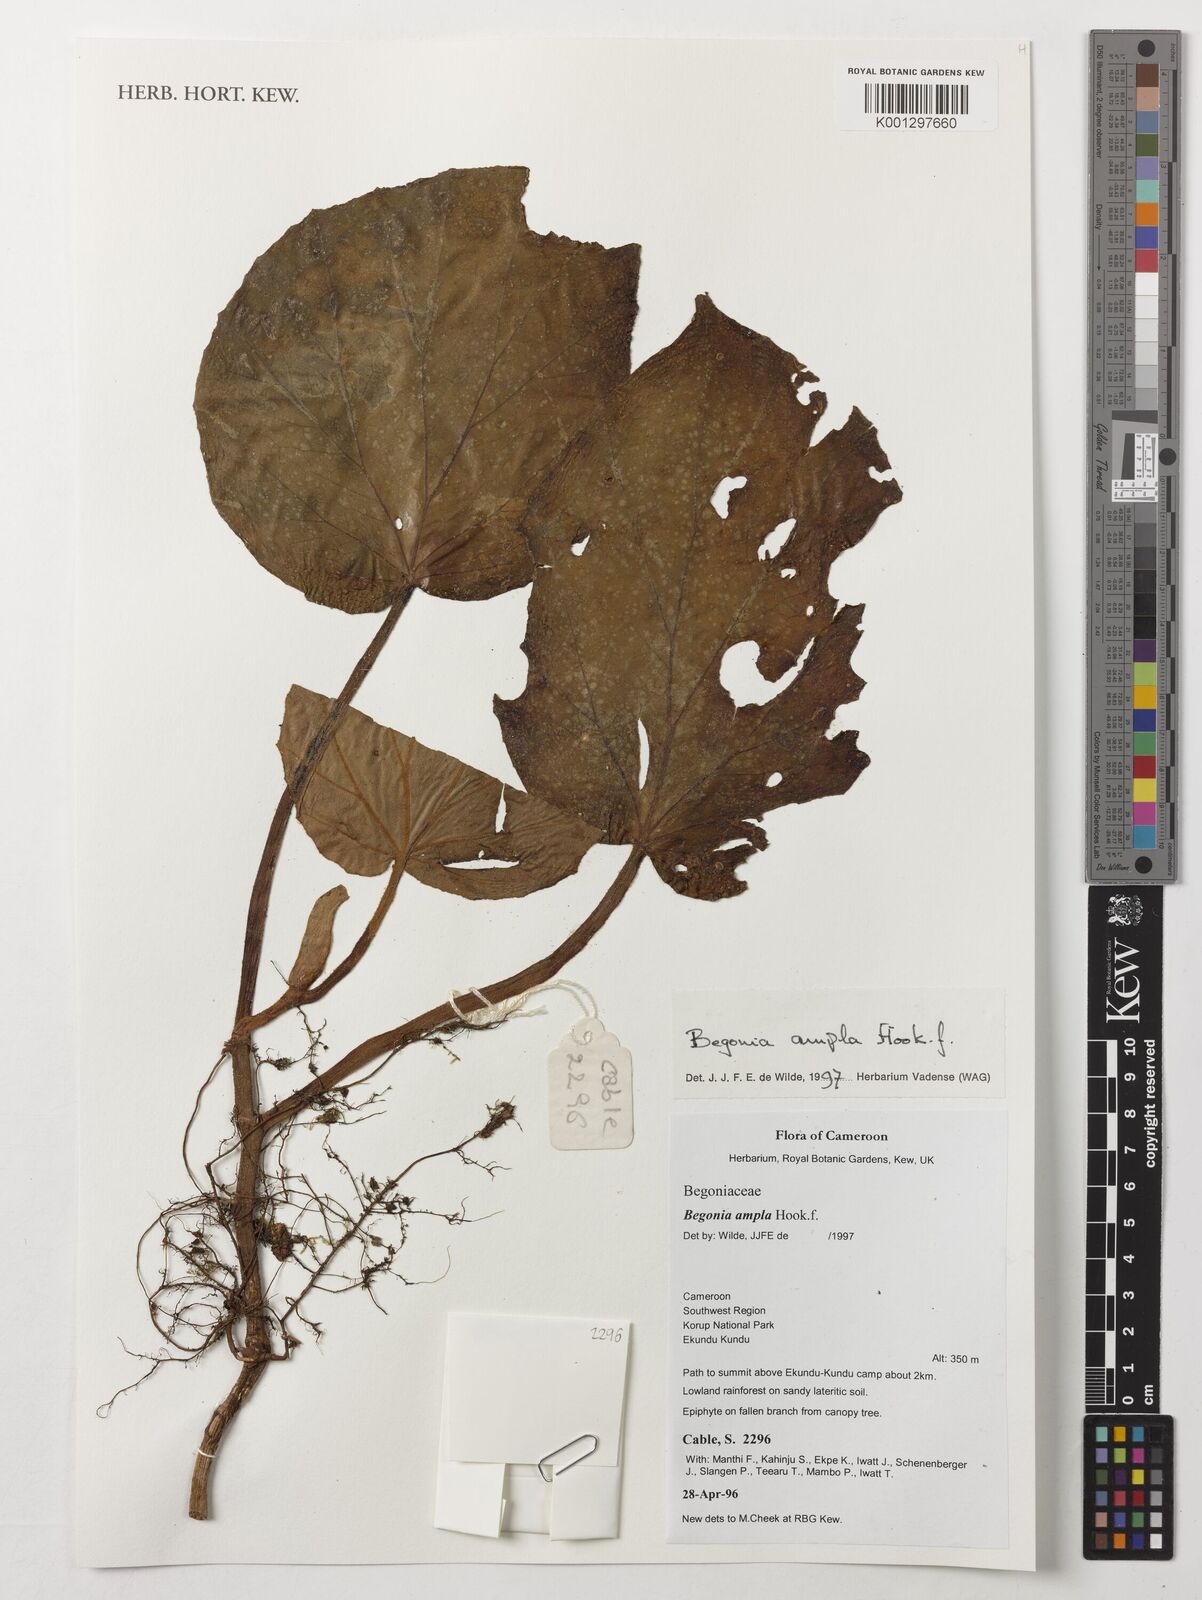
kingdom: Plantae
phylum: Tracheophyta
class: Magnoliopsida
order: Cucurbitales
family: Begoniaceae
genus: Begonia
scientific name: Begonia ampla
